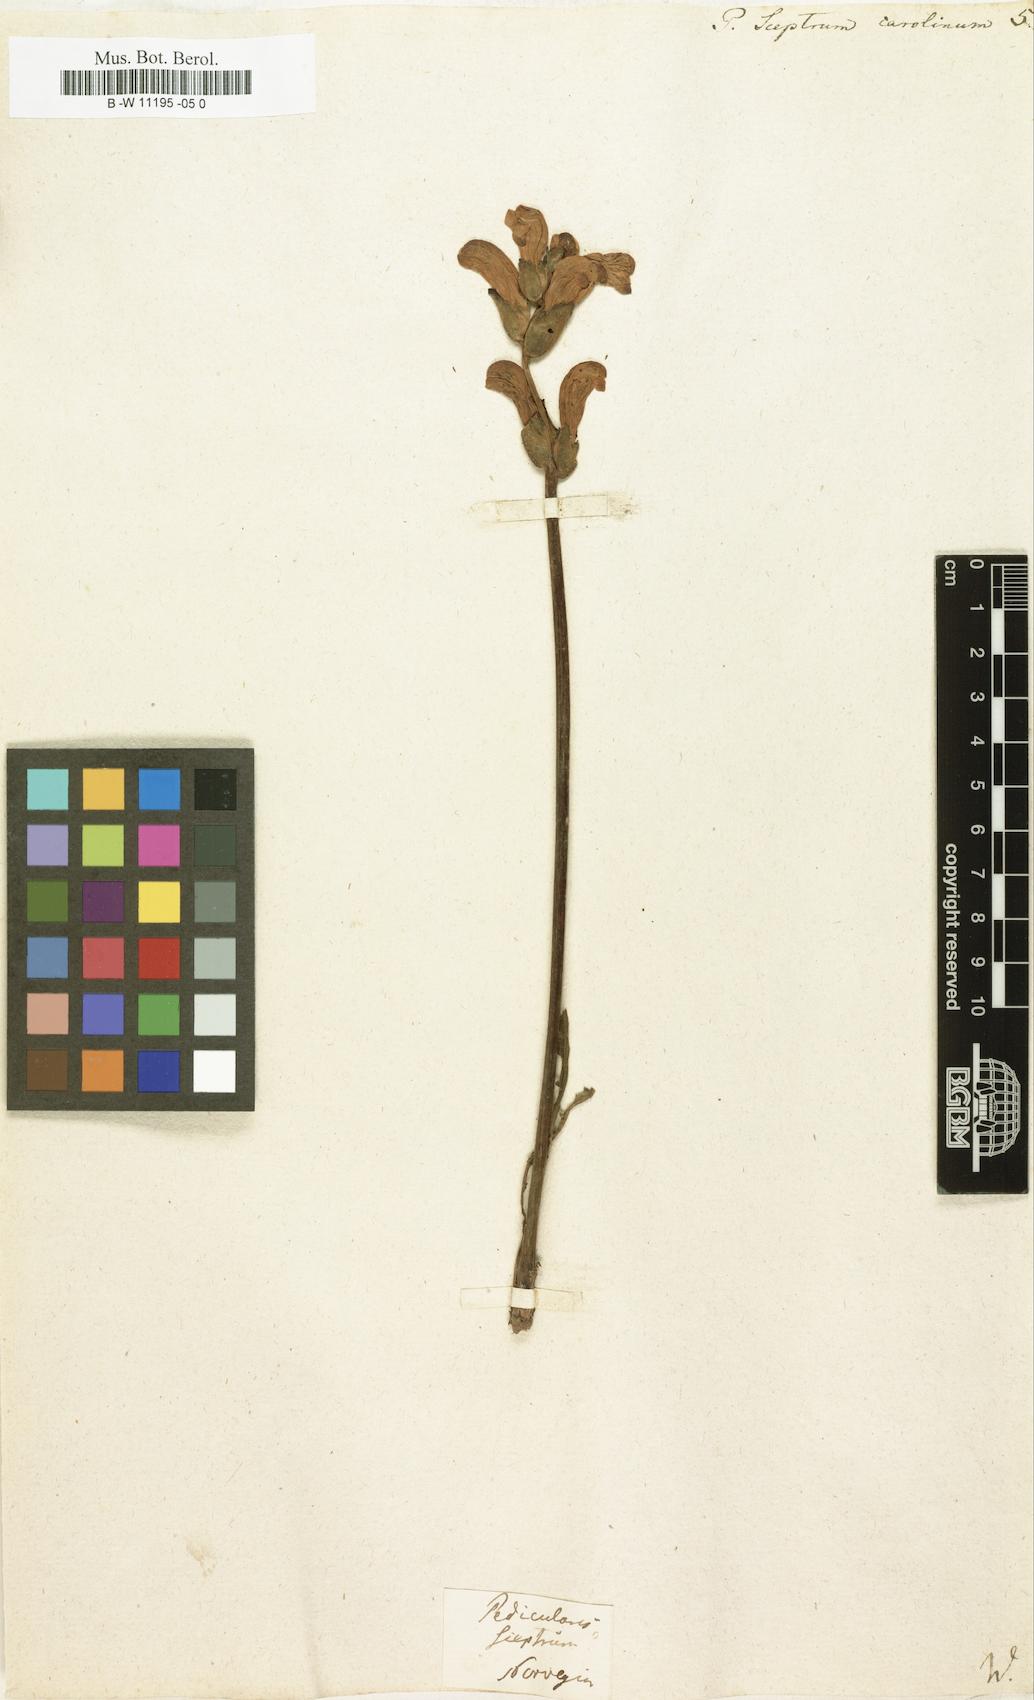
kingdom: Plantae
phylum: Tracheophyta
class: Magnoliopsida
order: Lamiales
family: Orobanchaceae
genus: Pedicularis
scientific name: Pedicularis sceptrum-carolinum
